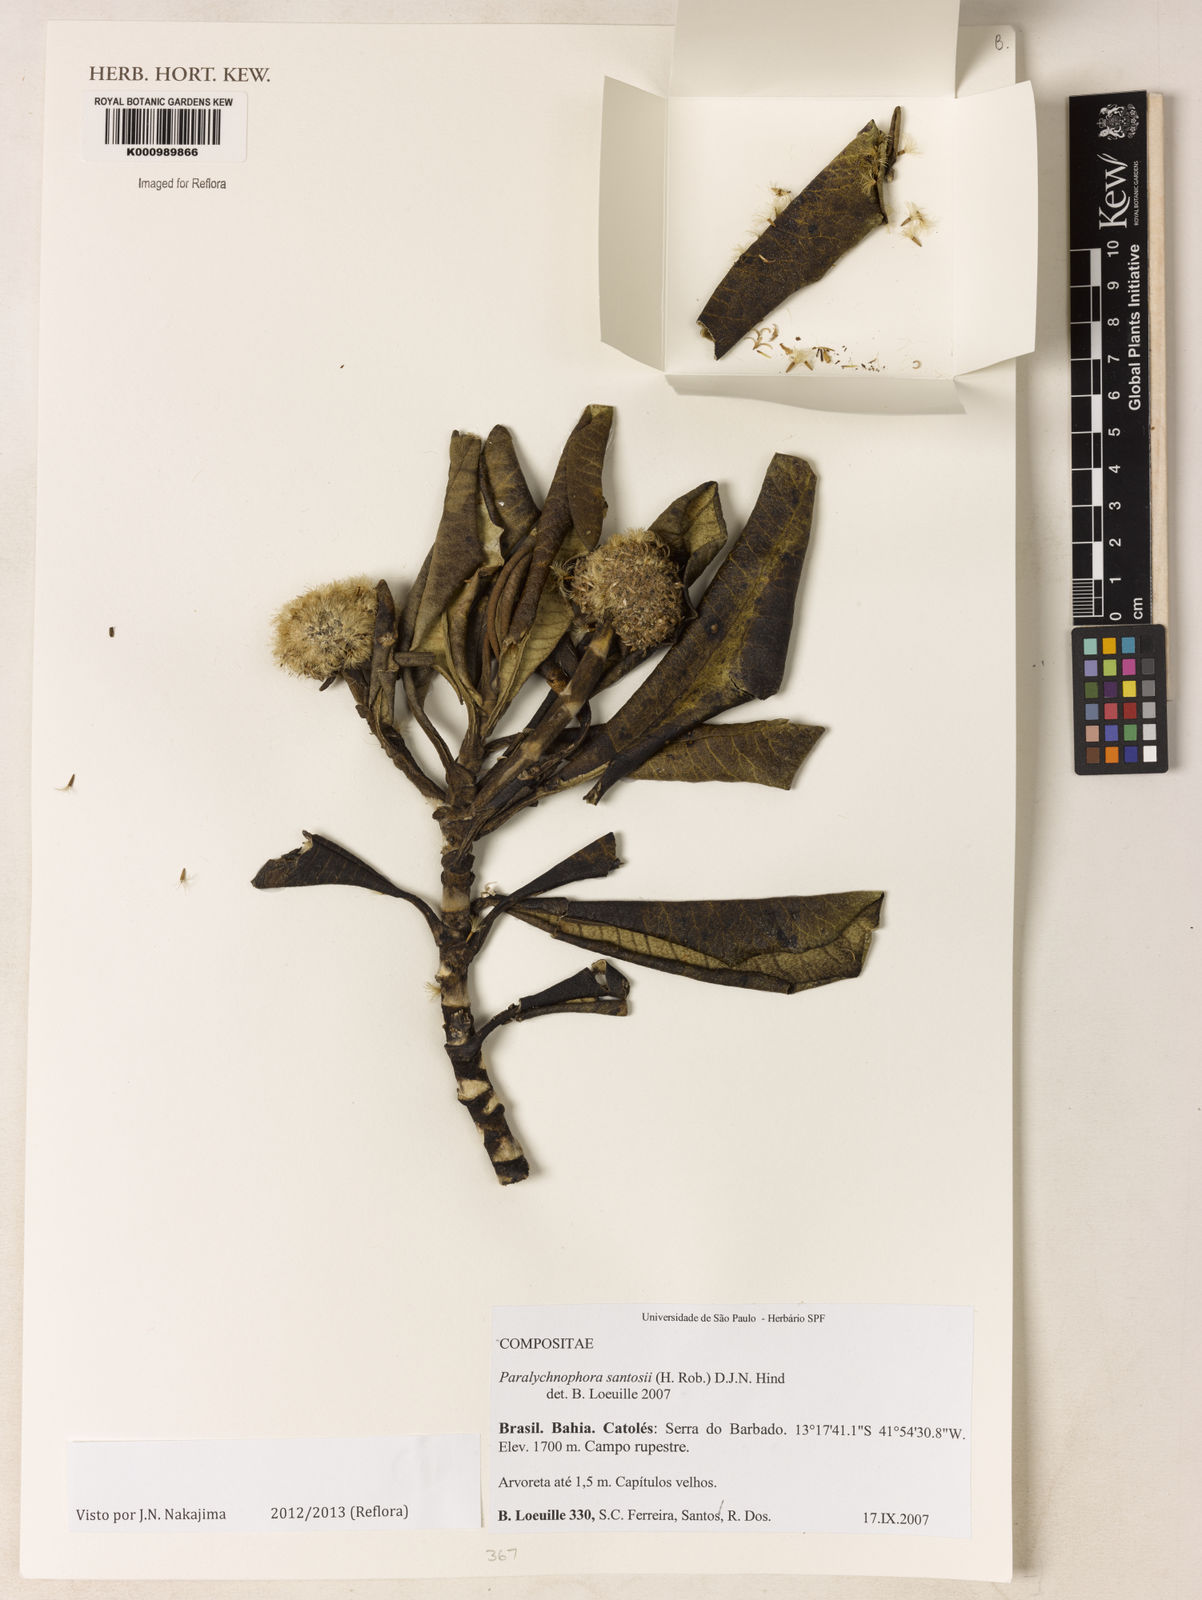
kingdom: Plantae
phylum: Tracheophyta
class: Magnoliopsida
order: Asterales
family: Asteraceae
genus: Paralychnophora
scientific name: Paralychnophora santosii
